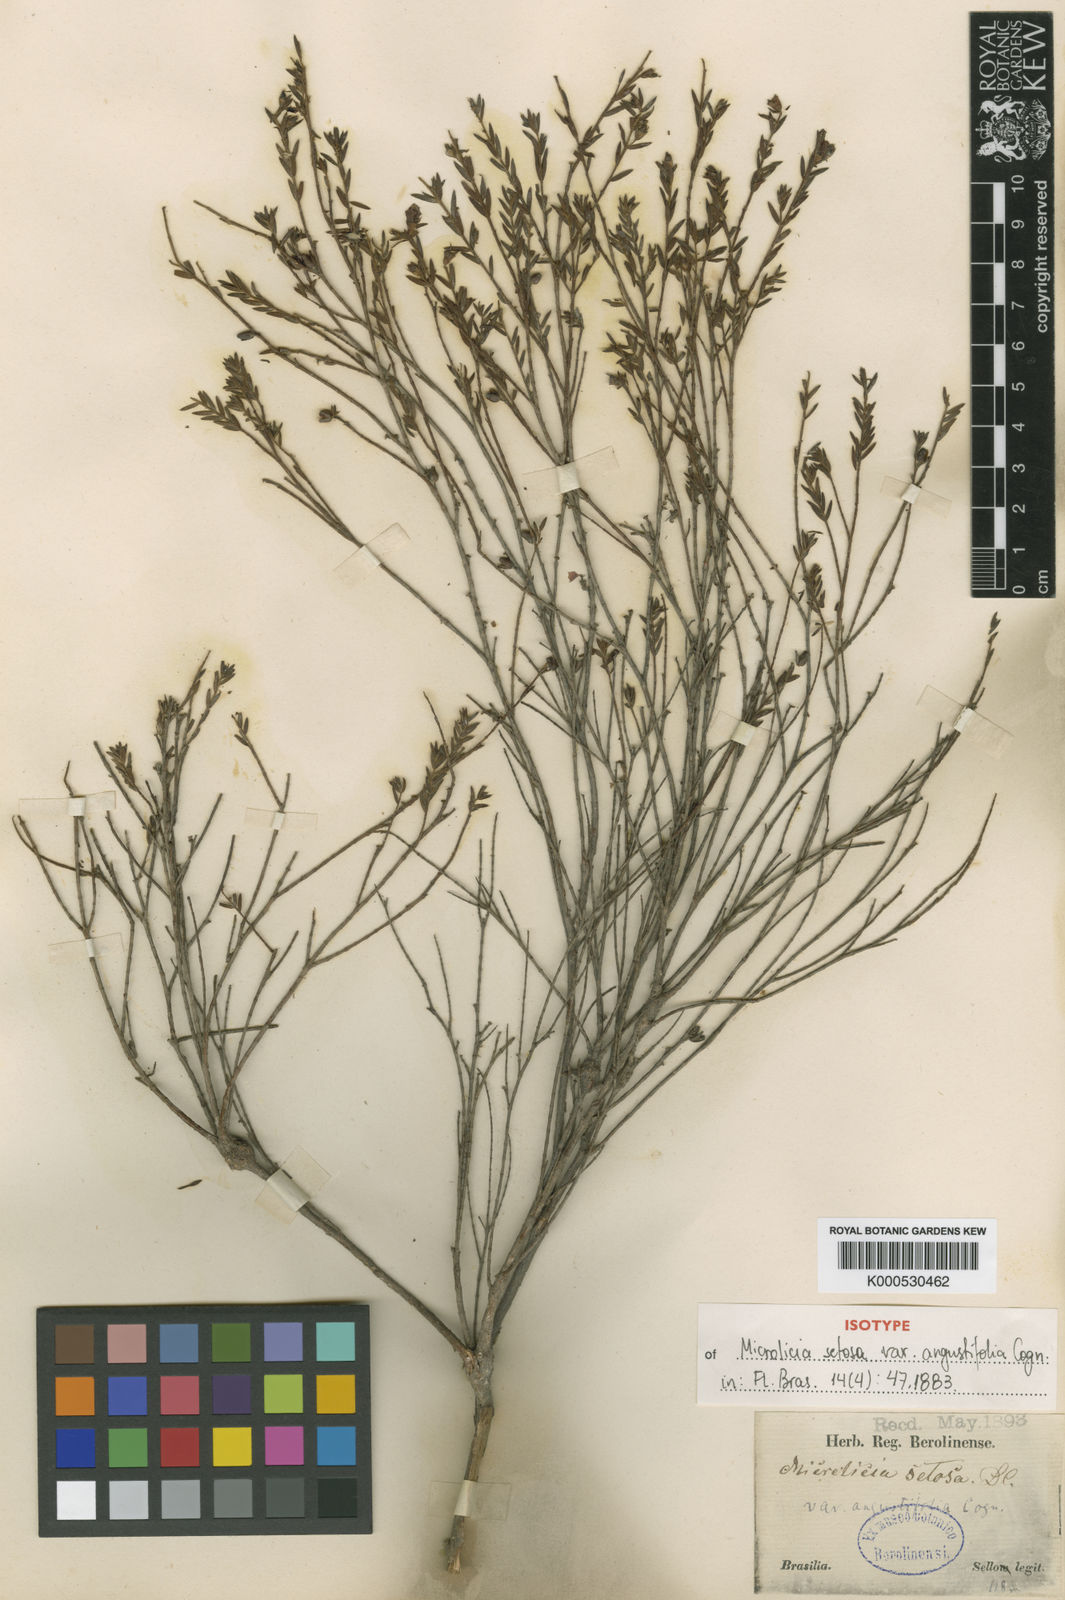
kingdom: Plantae
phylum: Tracheophyta
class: Magnoliopsida
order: Myrtales
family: Melastomataceae
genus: Microlicia
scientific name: Microlicia setosa
